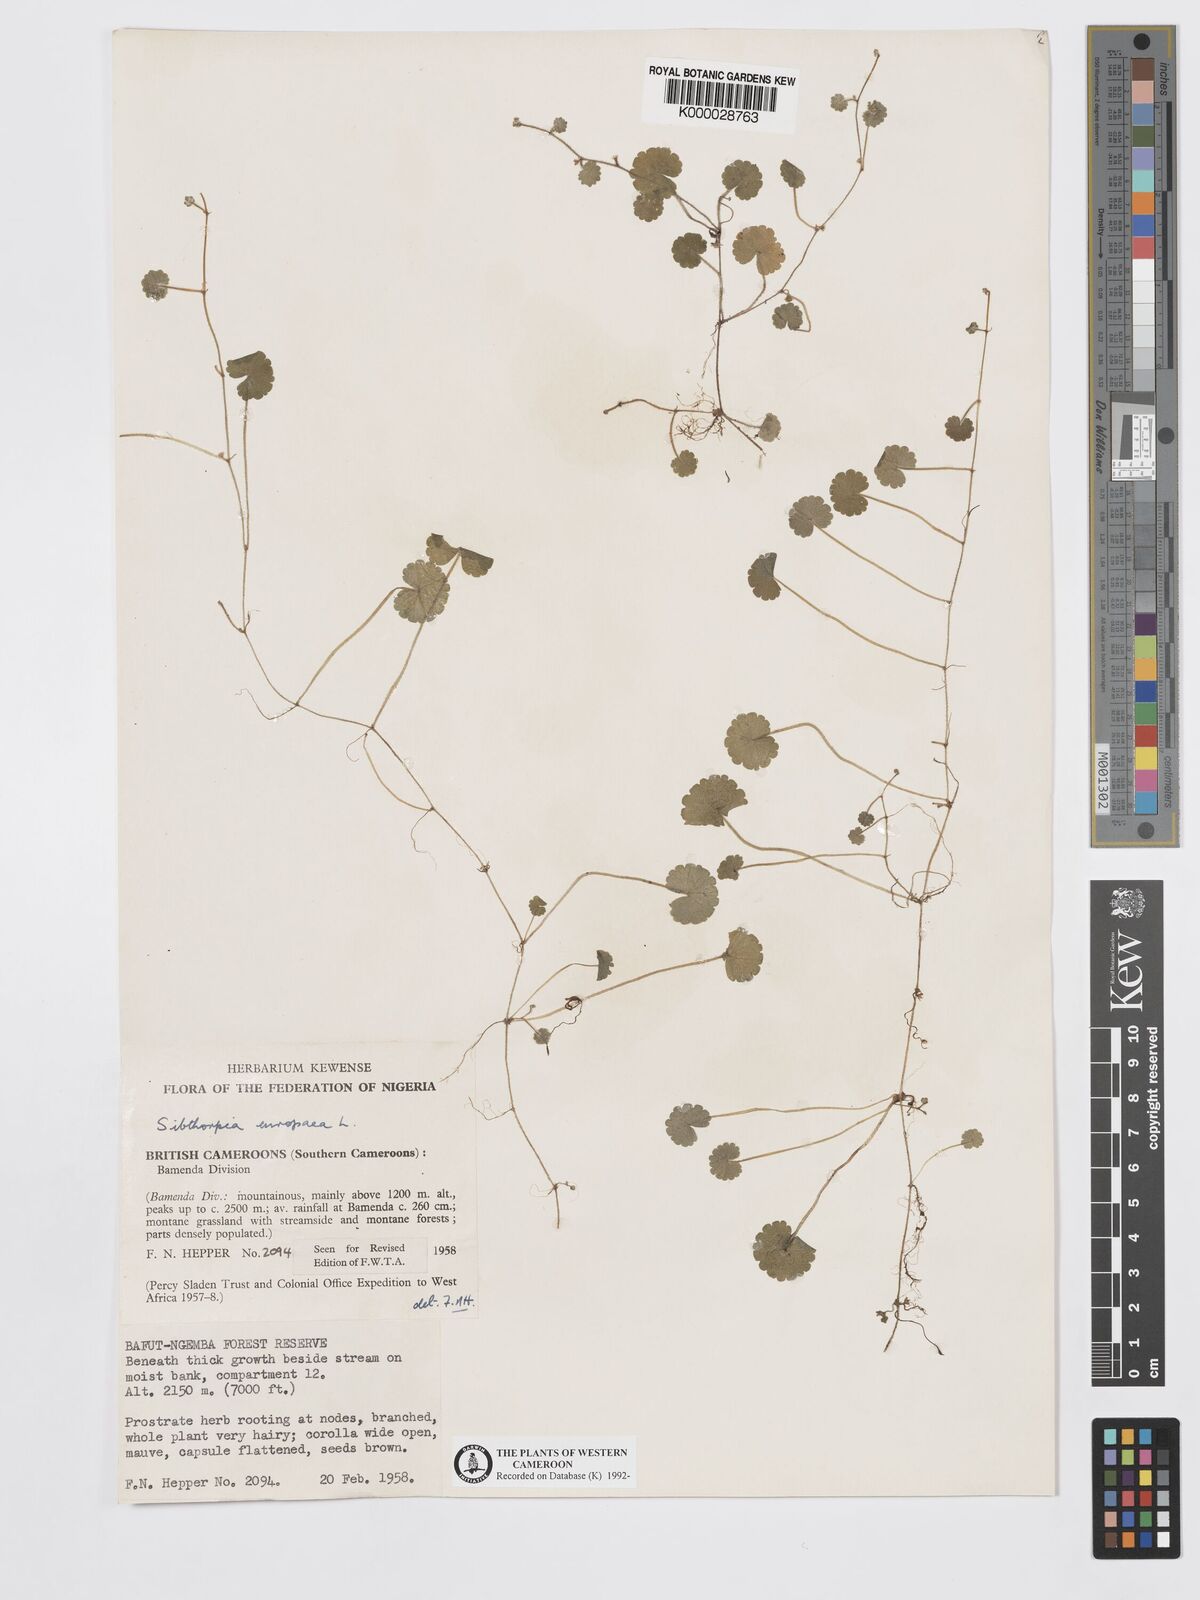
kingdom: Plantae
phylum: Tracheophyta
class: Magnoliopsida
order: Lamiales
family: Plantaginaceae
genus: Sibthorpia
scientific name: Sibthorpia europaea
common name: Cornish moneywort
